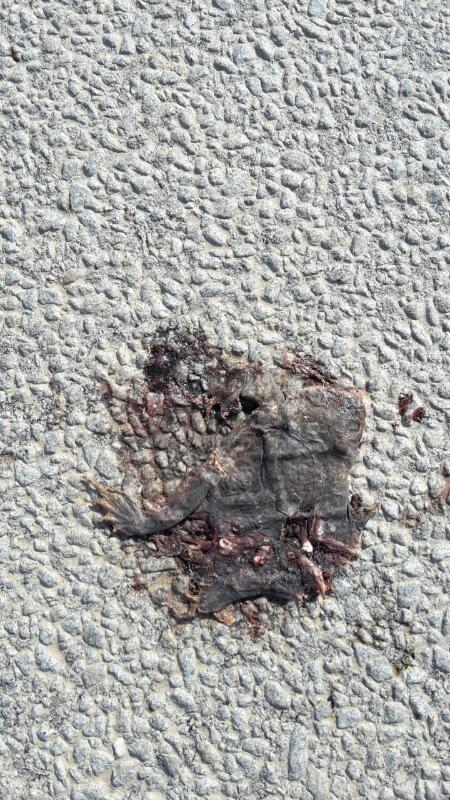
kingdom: Animalia
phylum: Chordata
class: Amphibia
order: Anura
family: Bufonidae
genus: Bufo
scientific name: Bufo bufo
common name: Common toad
